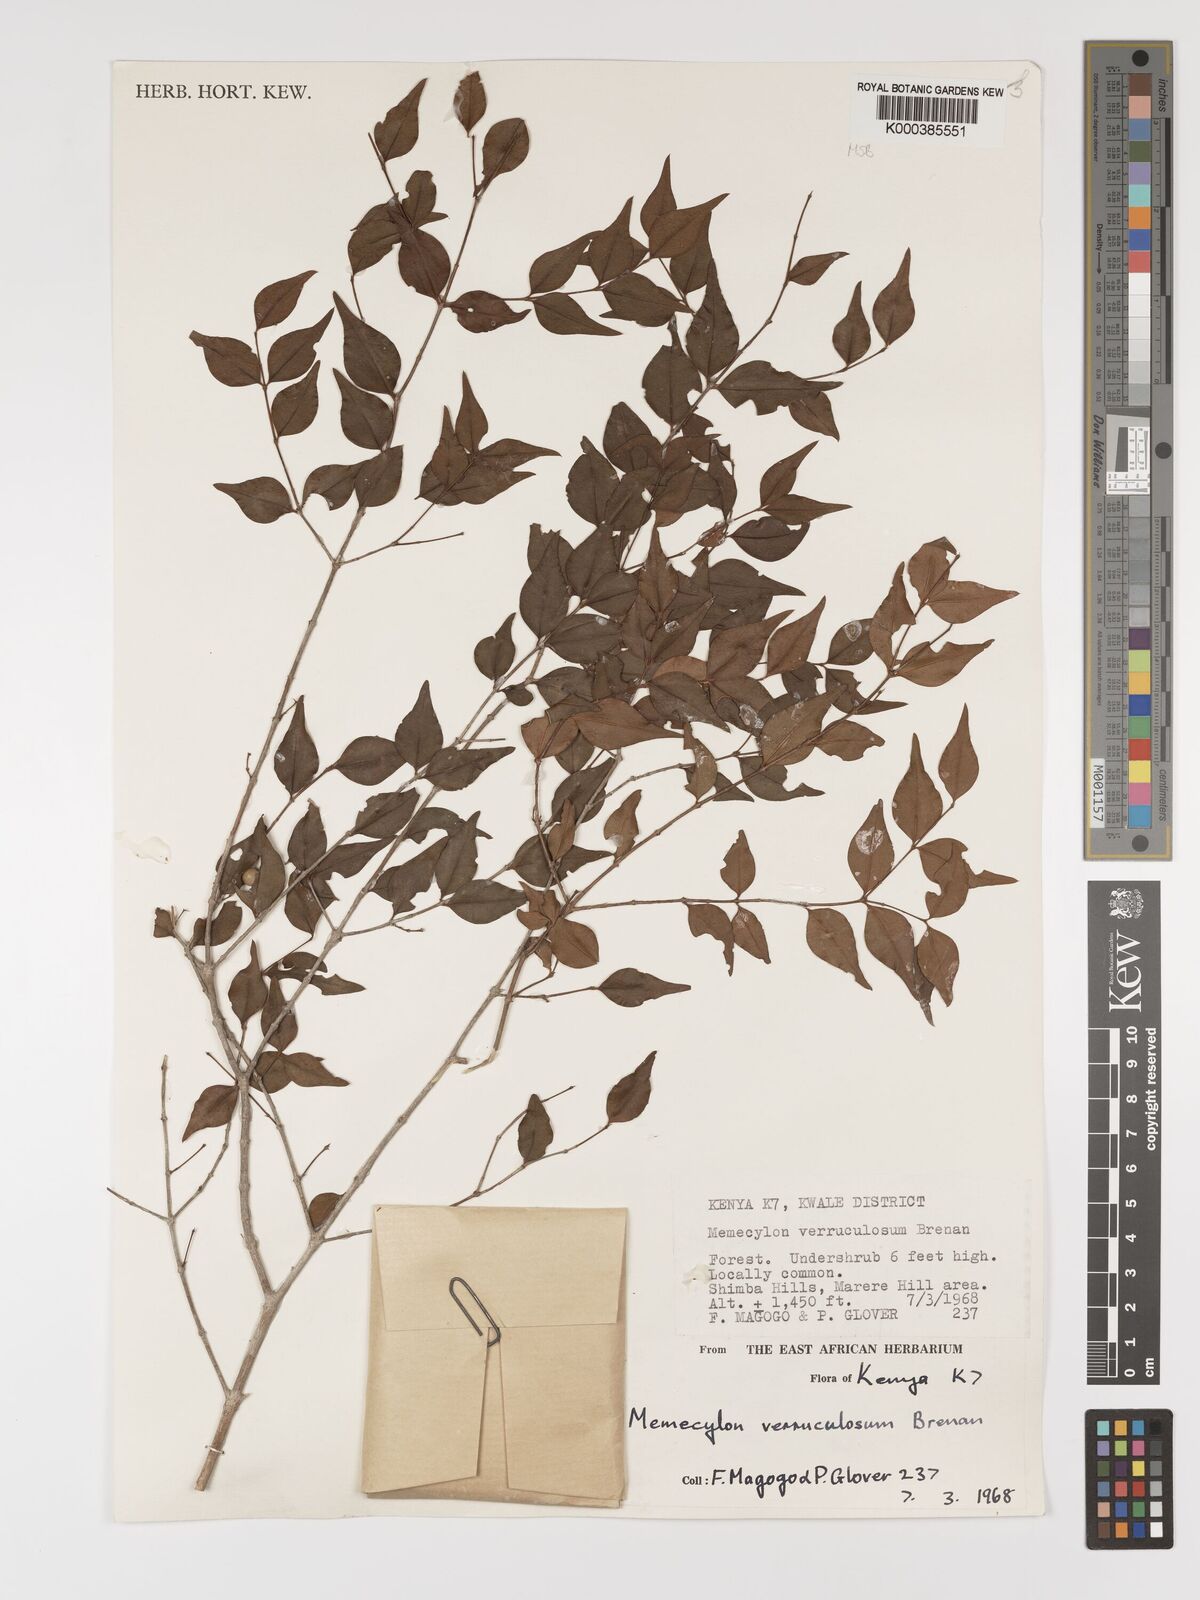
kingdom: Plantae
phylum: Tracheophyta
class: Magnoliopsida
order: Myrtales
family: Melastomataceae
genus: Memecylon
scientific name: Memecylon verruculosum
